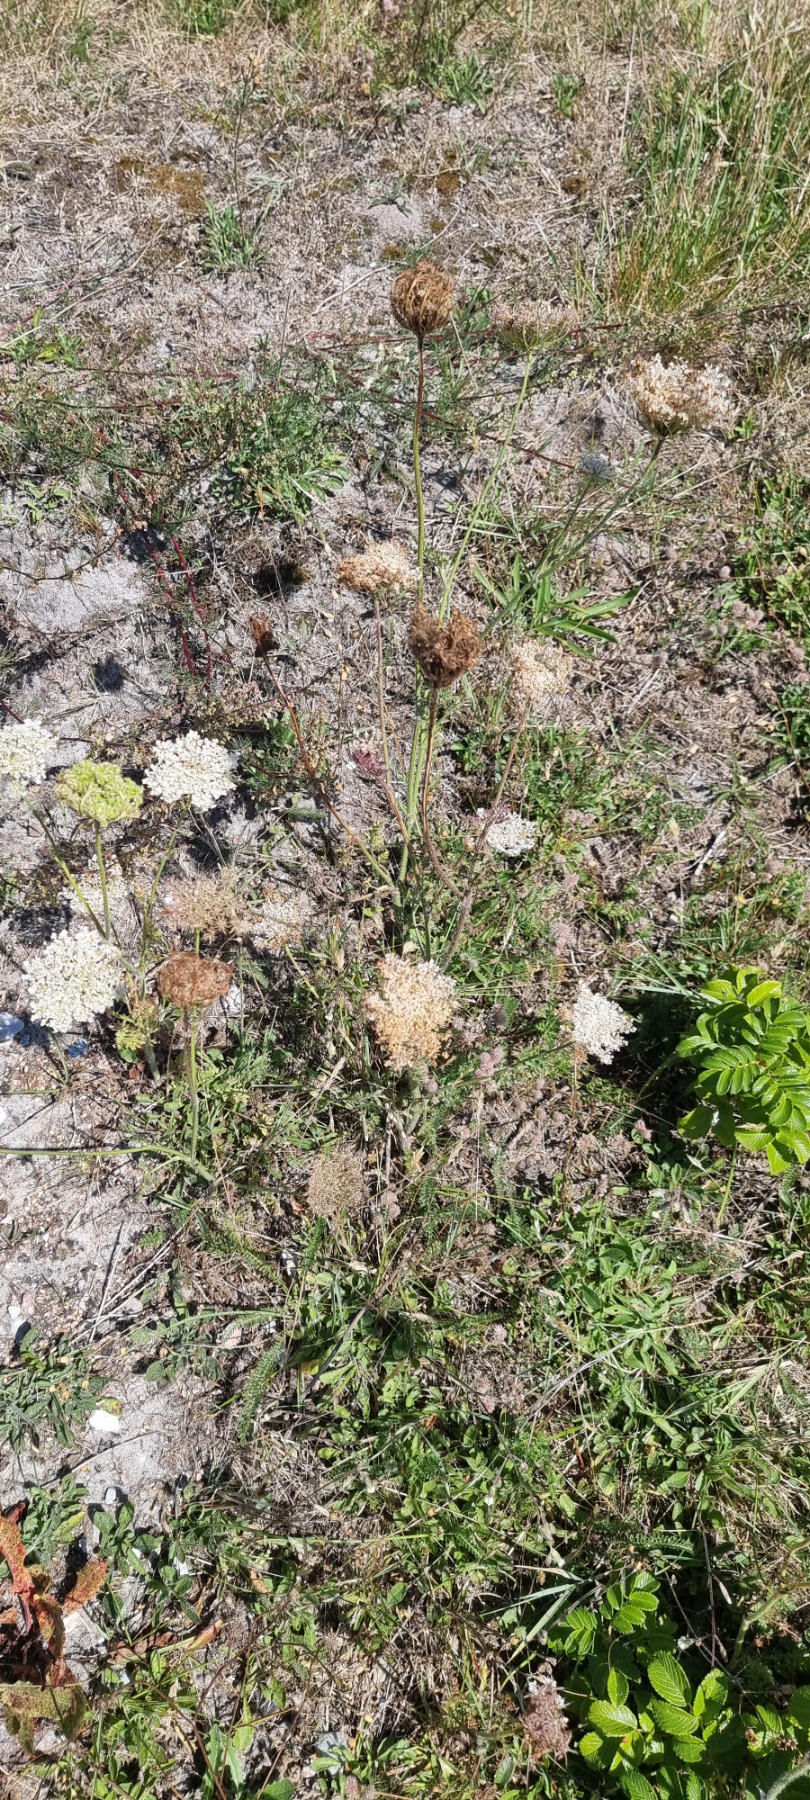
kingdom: Plantae
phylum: Tracheophyta
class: Magnoliopsida
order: Apiales
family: Apiaceae
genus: Daucus
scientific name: Daucus carota
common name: Vild gulerod
